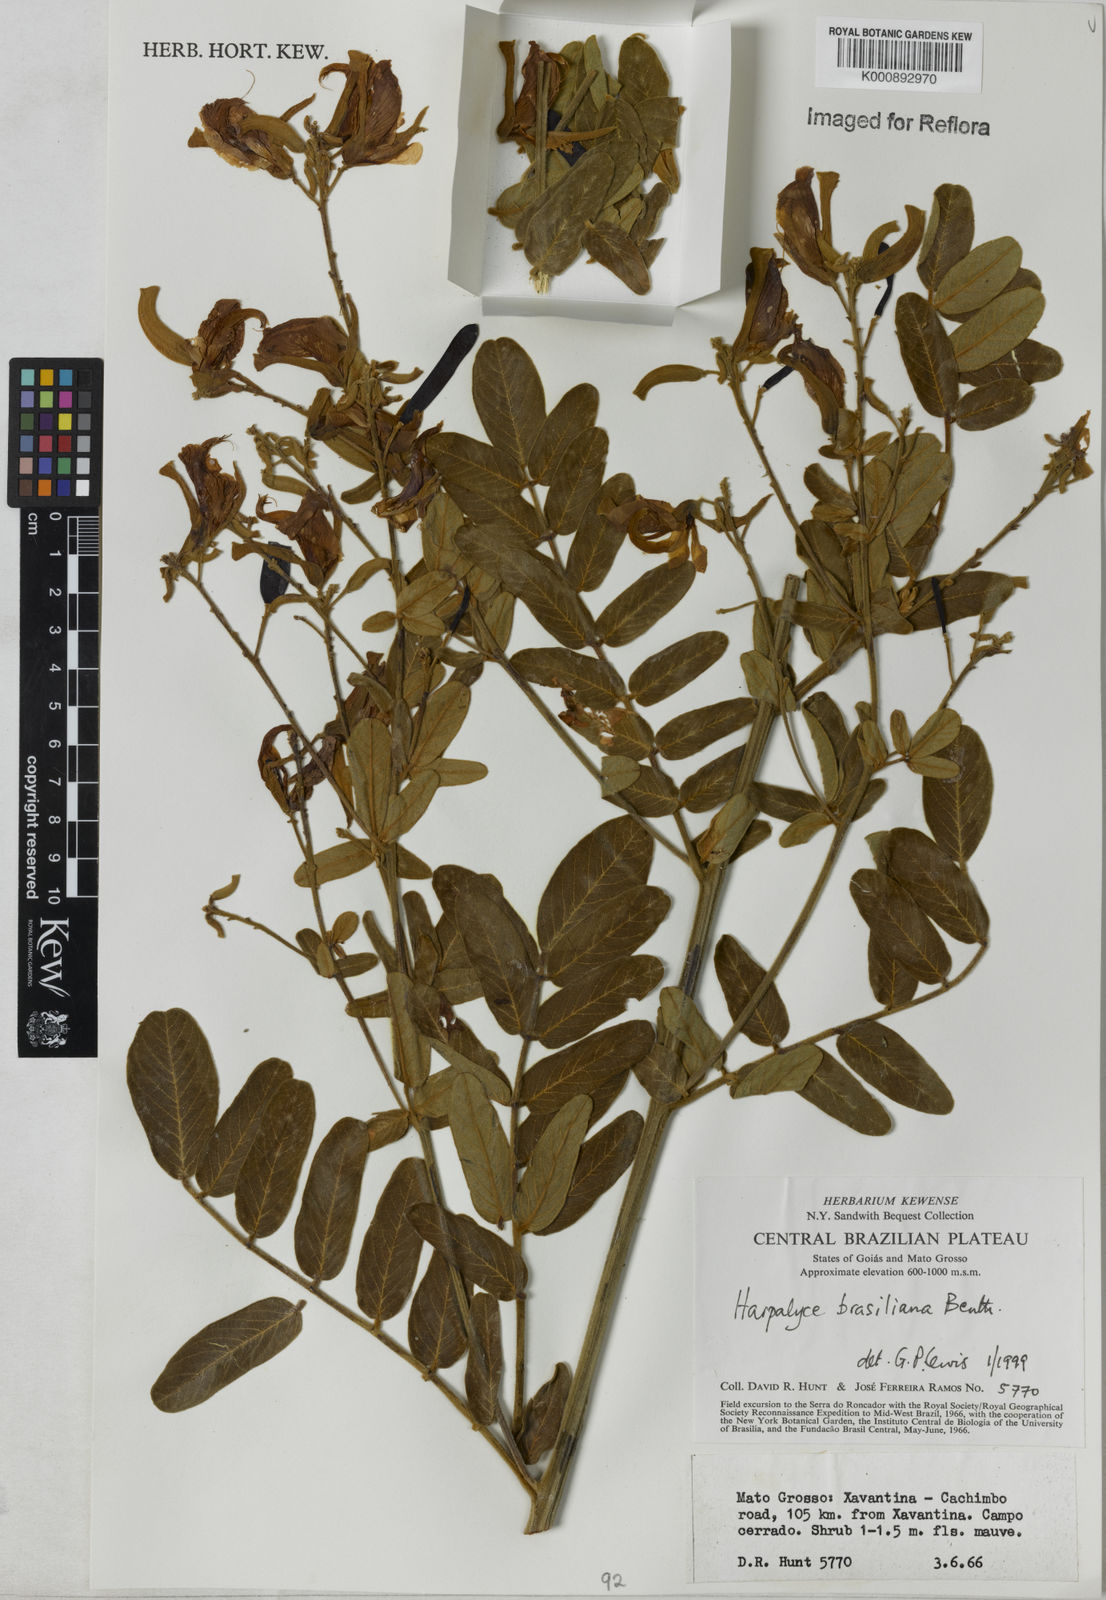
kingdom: Plantae
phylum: Tracheophyta
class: Magnoliopsida
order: Fabales
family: Fabaceae
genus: Harpalyce
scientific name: Harpalyce brasiliana
